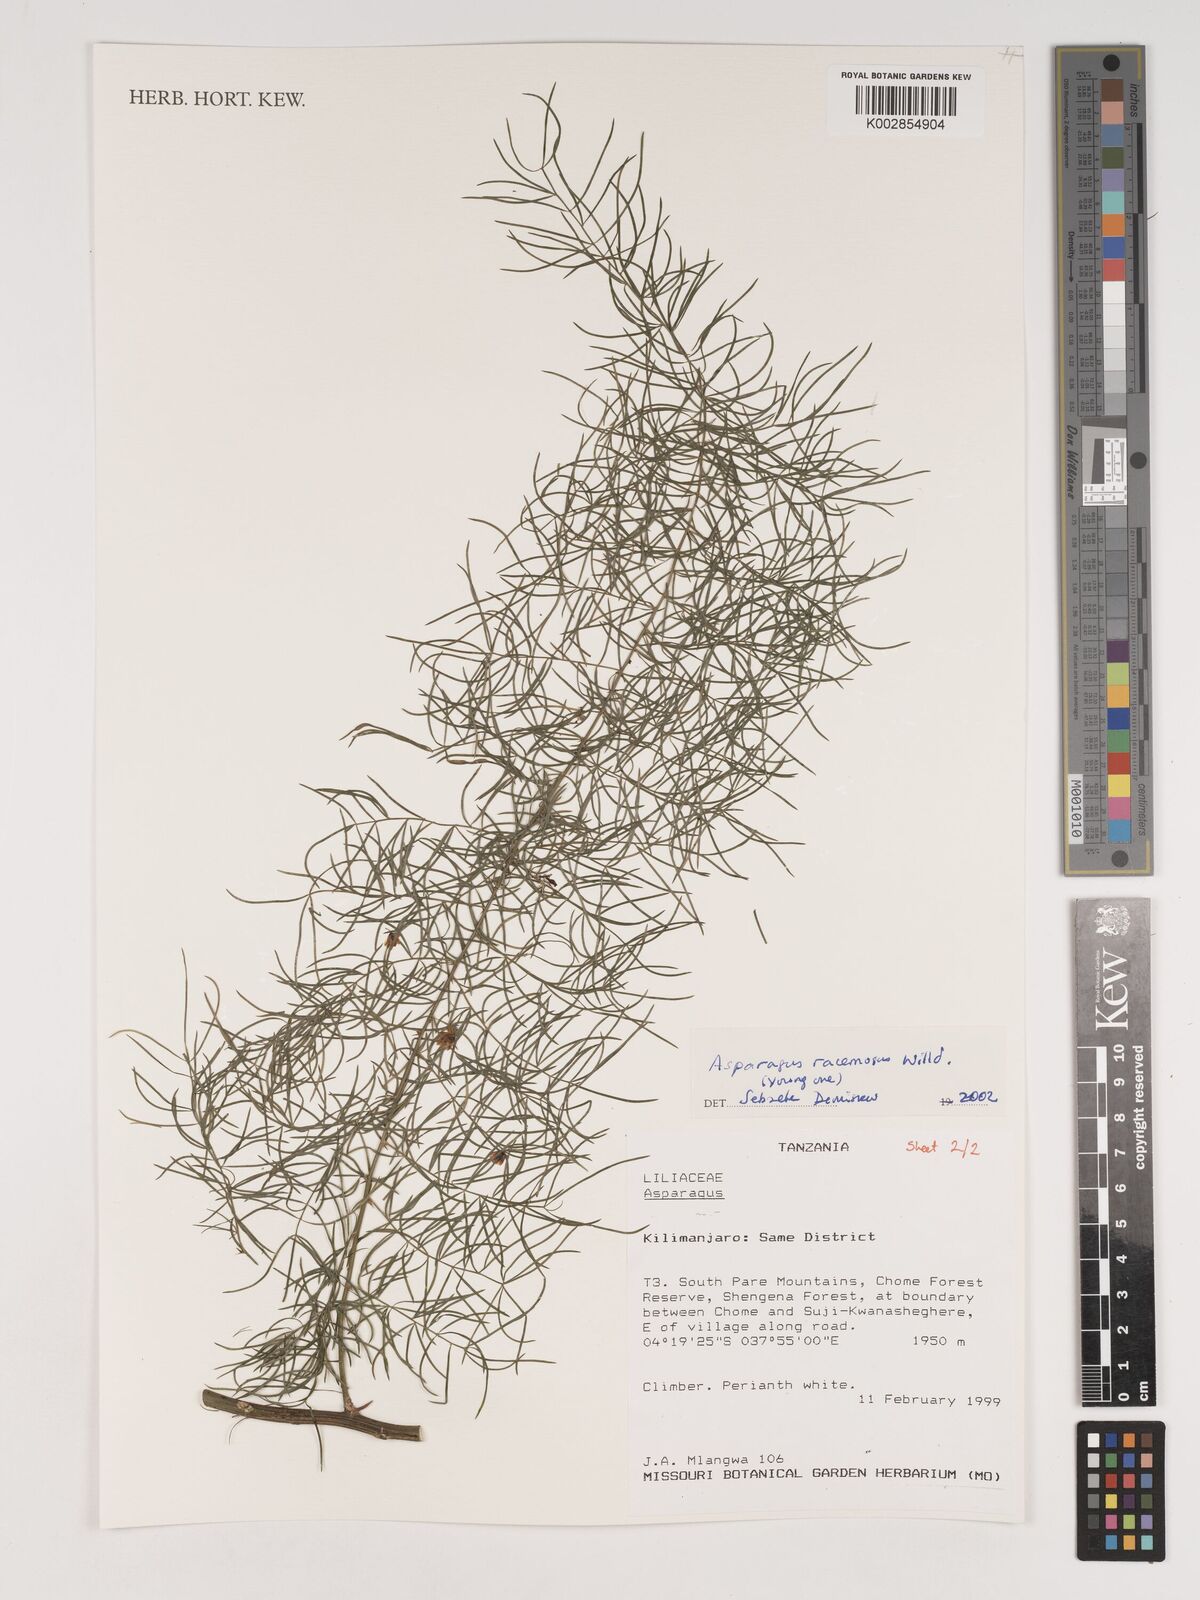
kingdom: Plantae
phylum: Tracheophyta
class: Liliopsida
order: Asparagales
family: Asparagaceae
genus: Asparagus
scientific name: Asparagus racemosus
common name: Asparagus-fern
